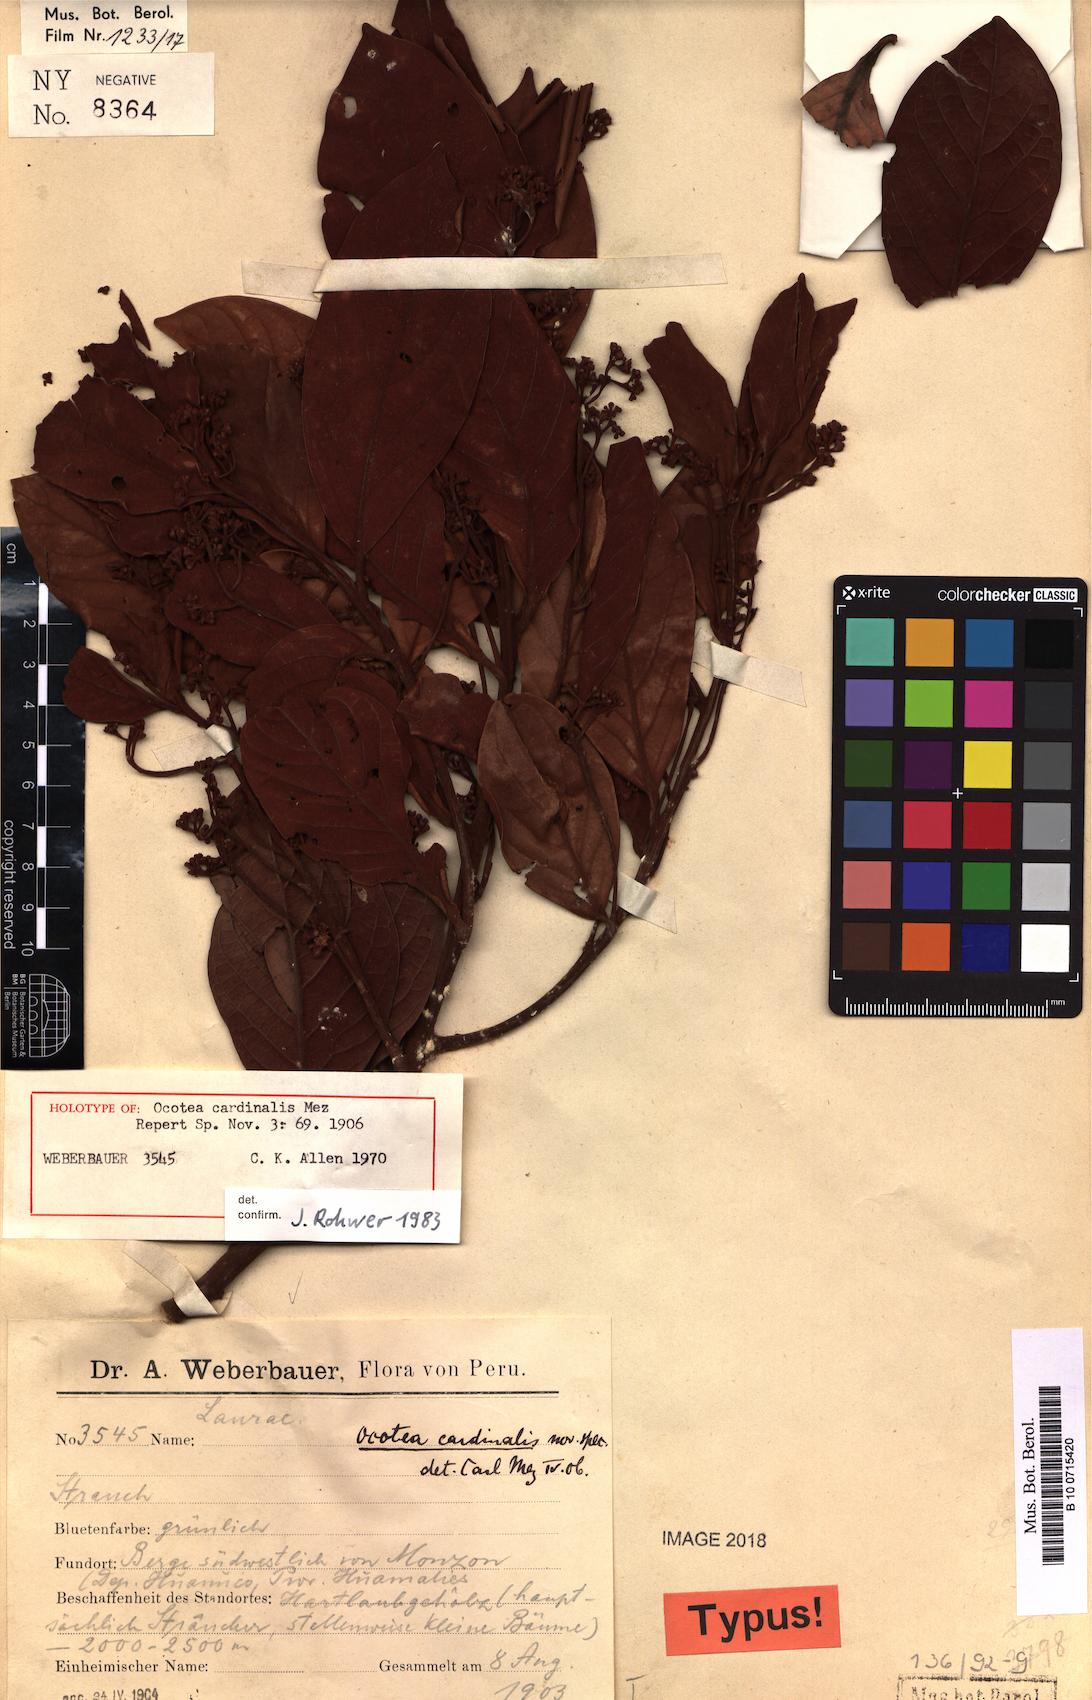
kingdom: Plantae
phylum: Tracheophyta
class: Magnoliopsida
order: Laurales
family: Lauraceae
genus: Ocotea
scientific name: Ocotea cardinalis
